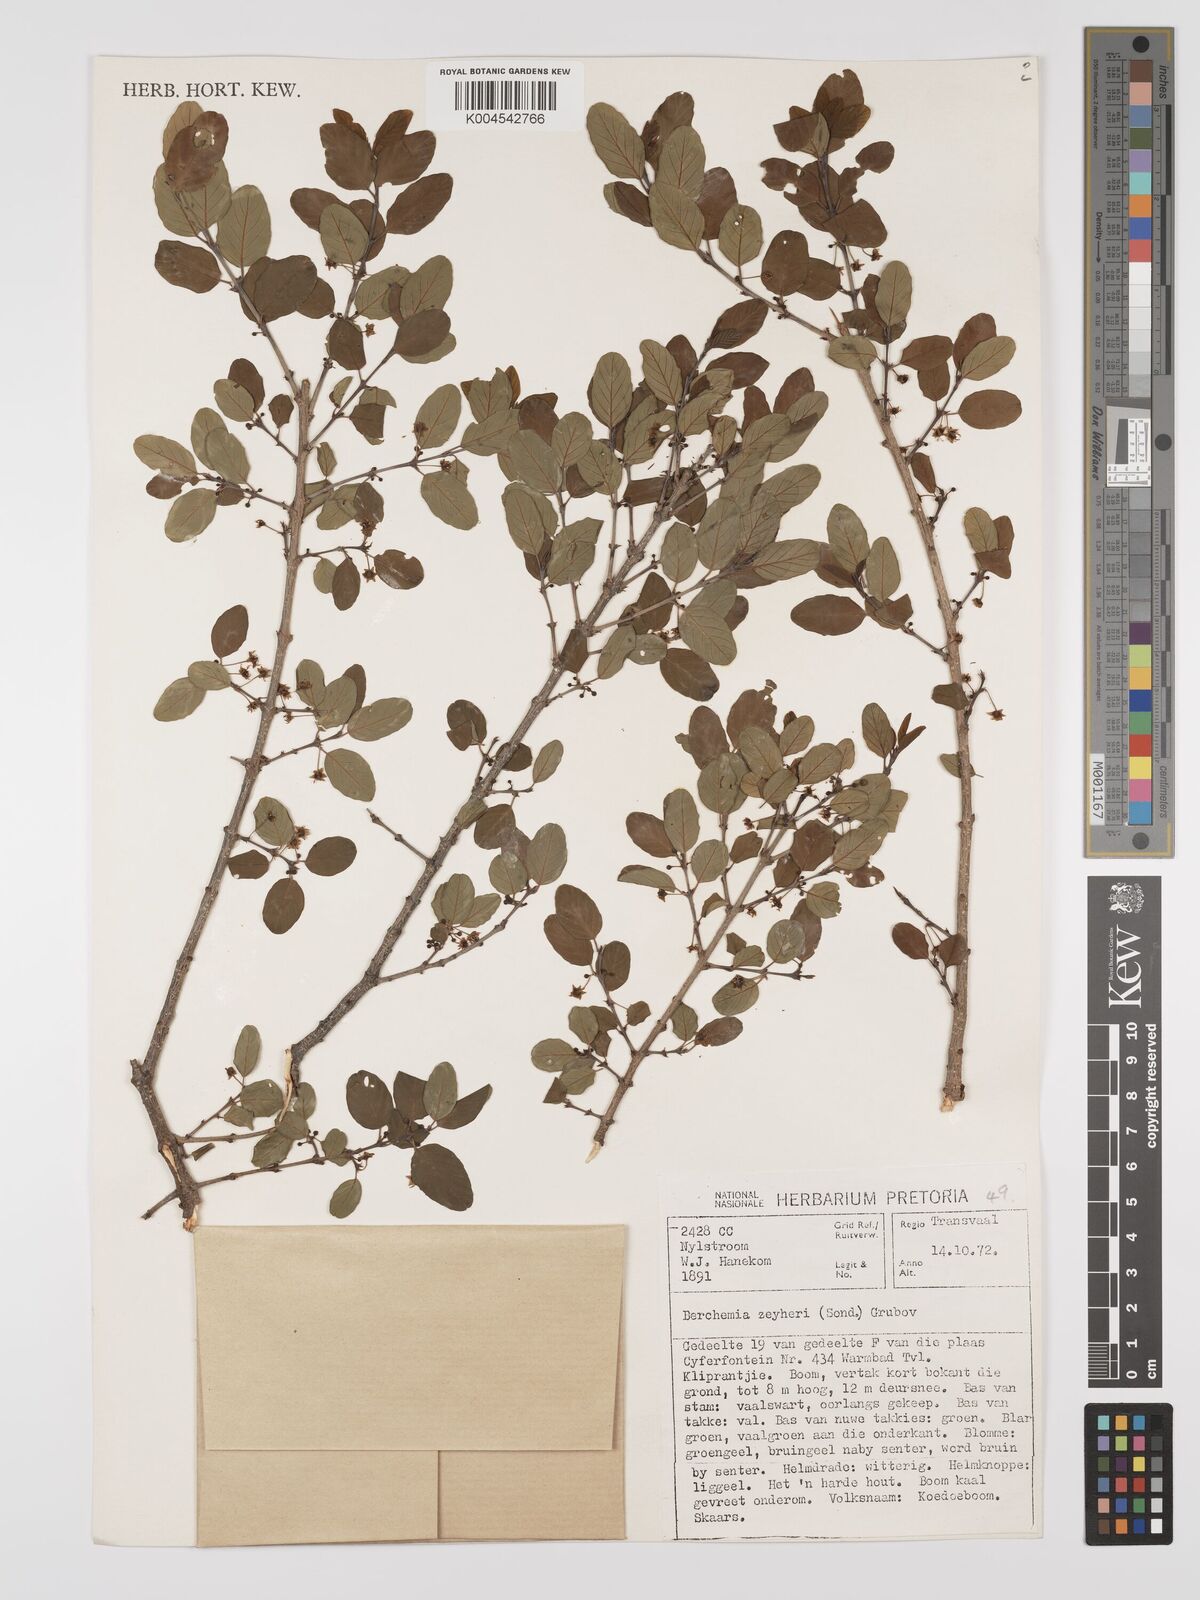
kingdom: Plantae
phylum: Tracheophyta
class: Magnoliopsida
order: Rosales
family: Rhamnaceae
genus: Phyllogeiton
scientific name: Phyllogeiton zeyheri
